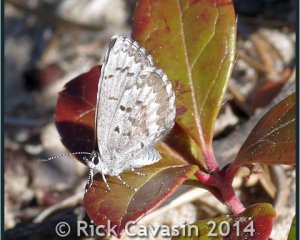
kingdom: Animalia
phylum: Arthropoda
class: Insecta
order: Lepidoptera
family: Lycaenidae
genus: Celastrina
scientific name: Celastrina lucia
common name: Northern Spring Azure
